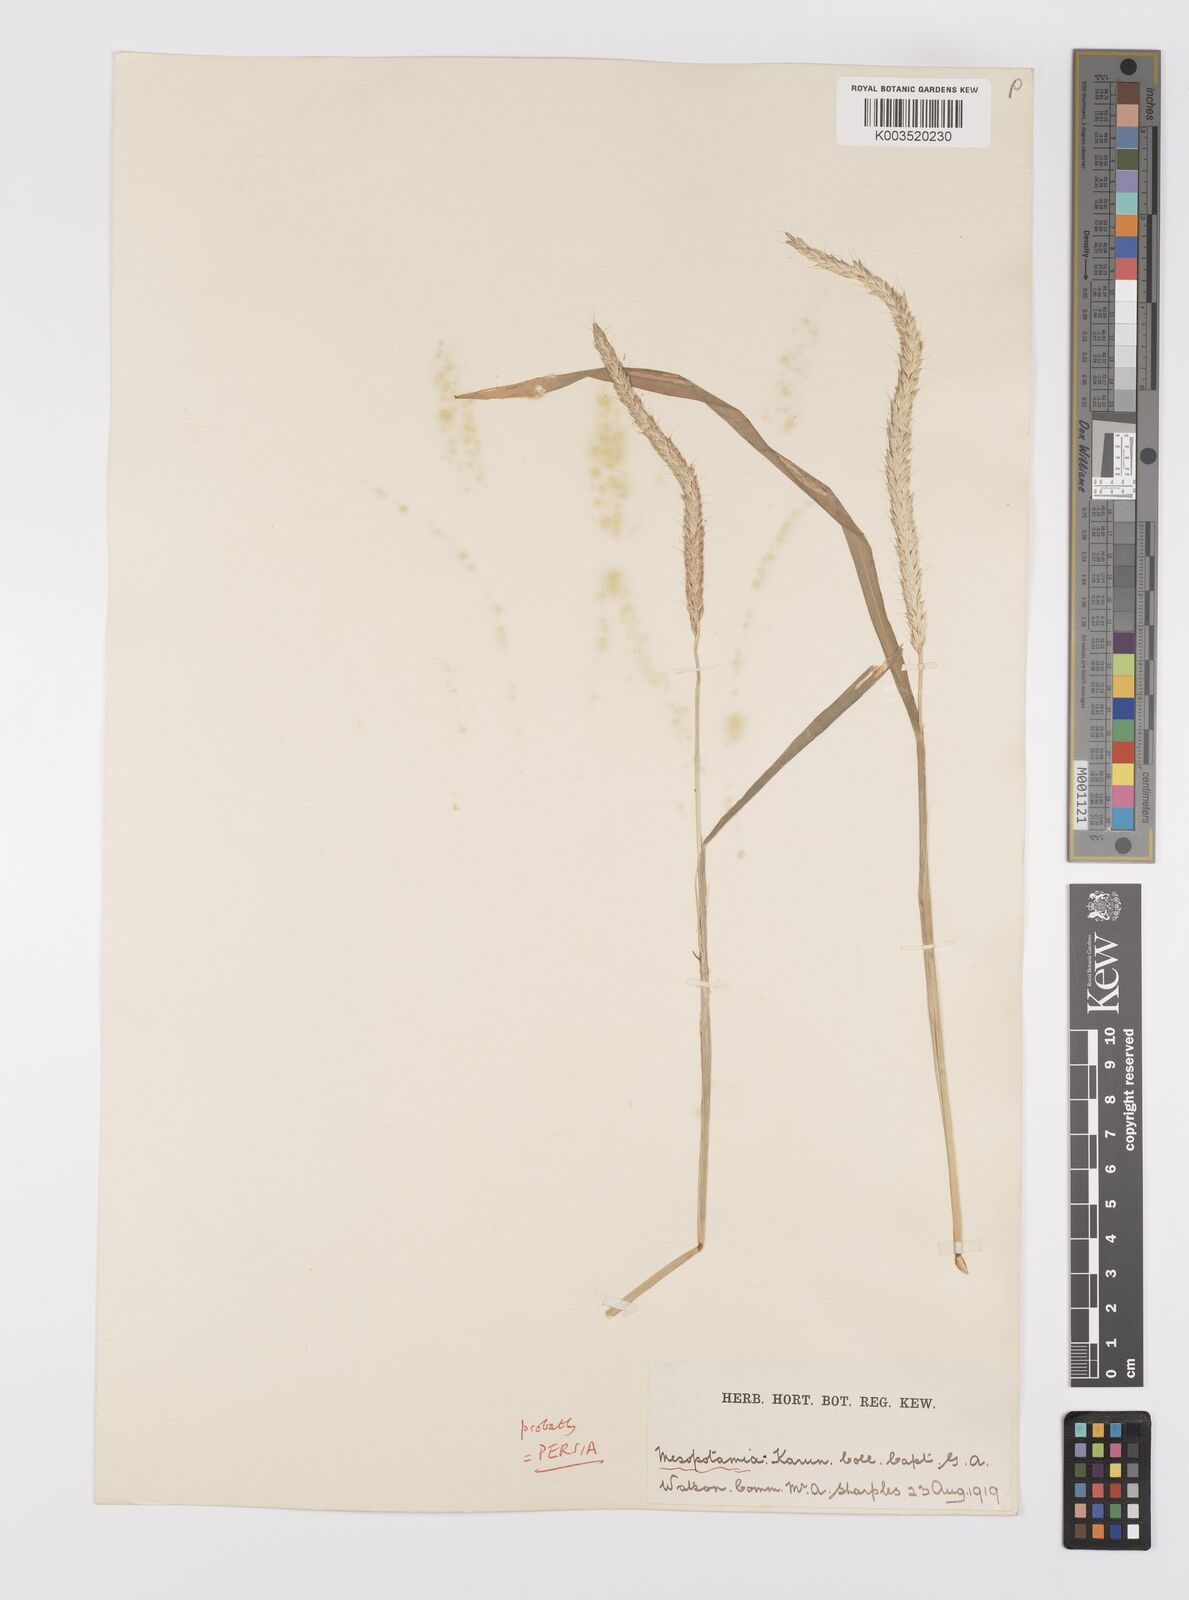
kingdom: Plantae
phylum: Tracheophyta
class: Liliopsida
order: Poales
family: Poaceae
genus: Alopecurus
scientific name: Alopecurus myosuroides
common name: Black-grass
